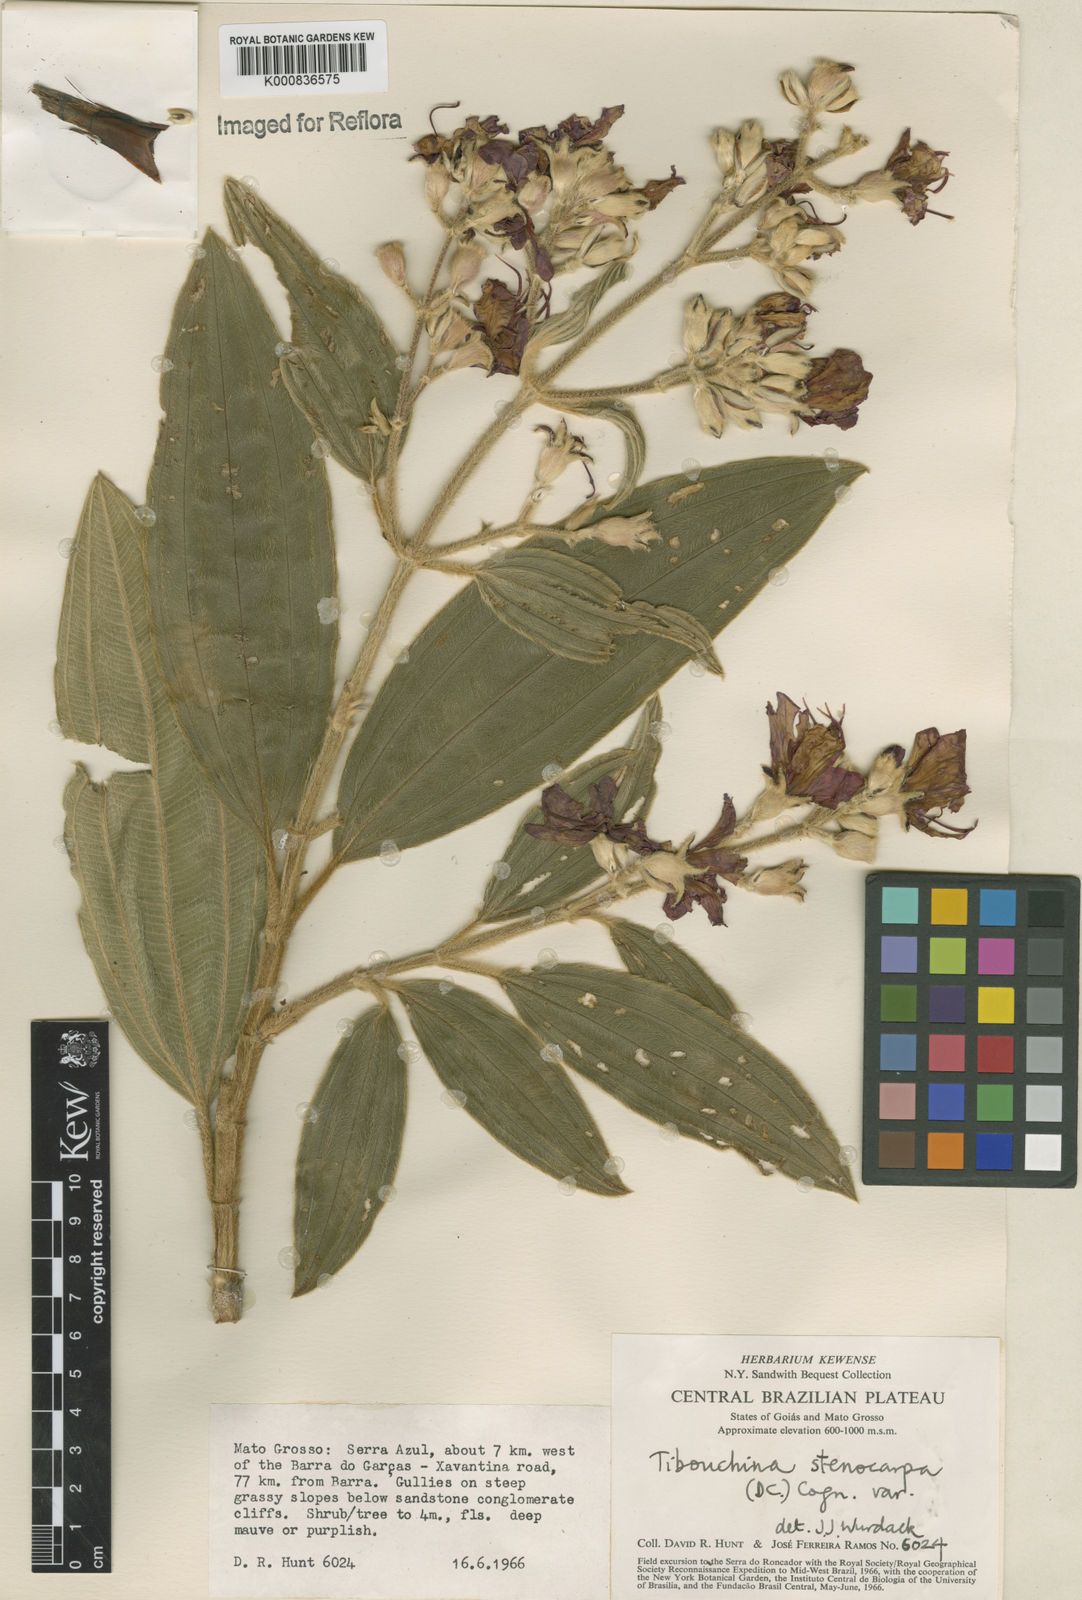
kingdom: Plantae
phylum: Tracheophyta
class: Magnoliopsida
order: Myrtales
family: Melastomataceae
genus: Pleroma
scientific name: Pleroma stenocarpum
